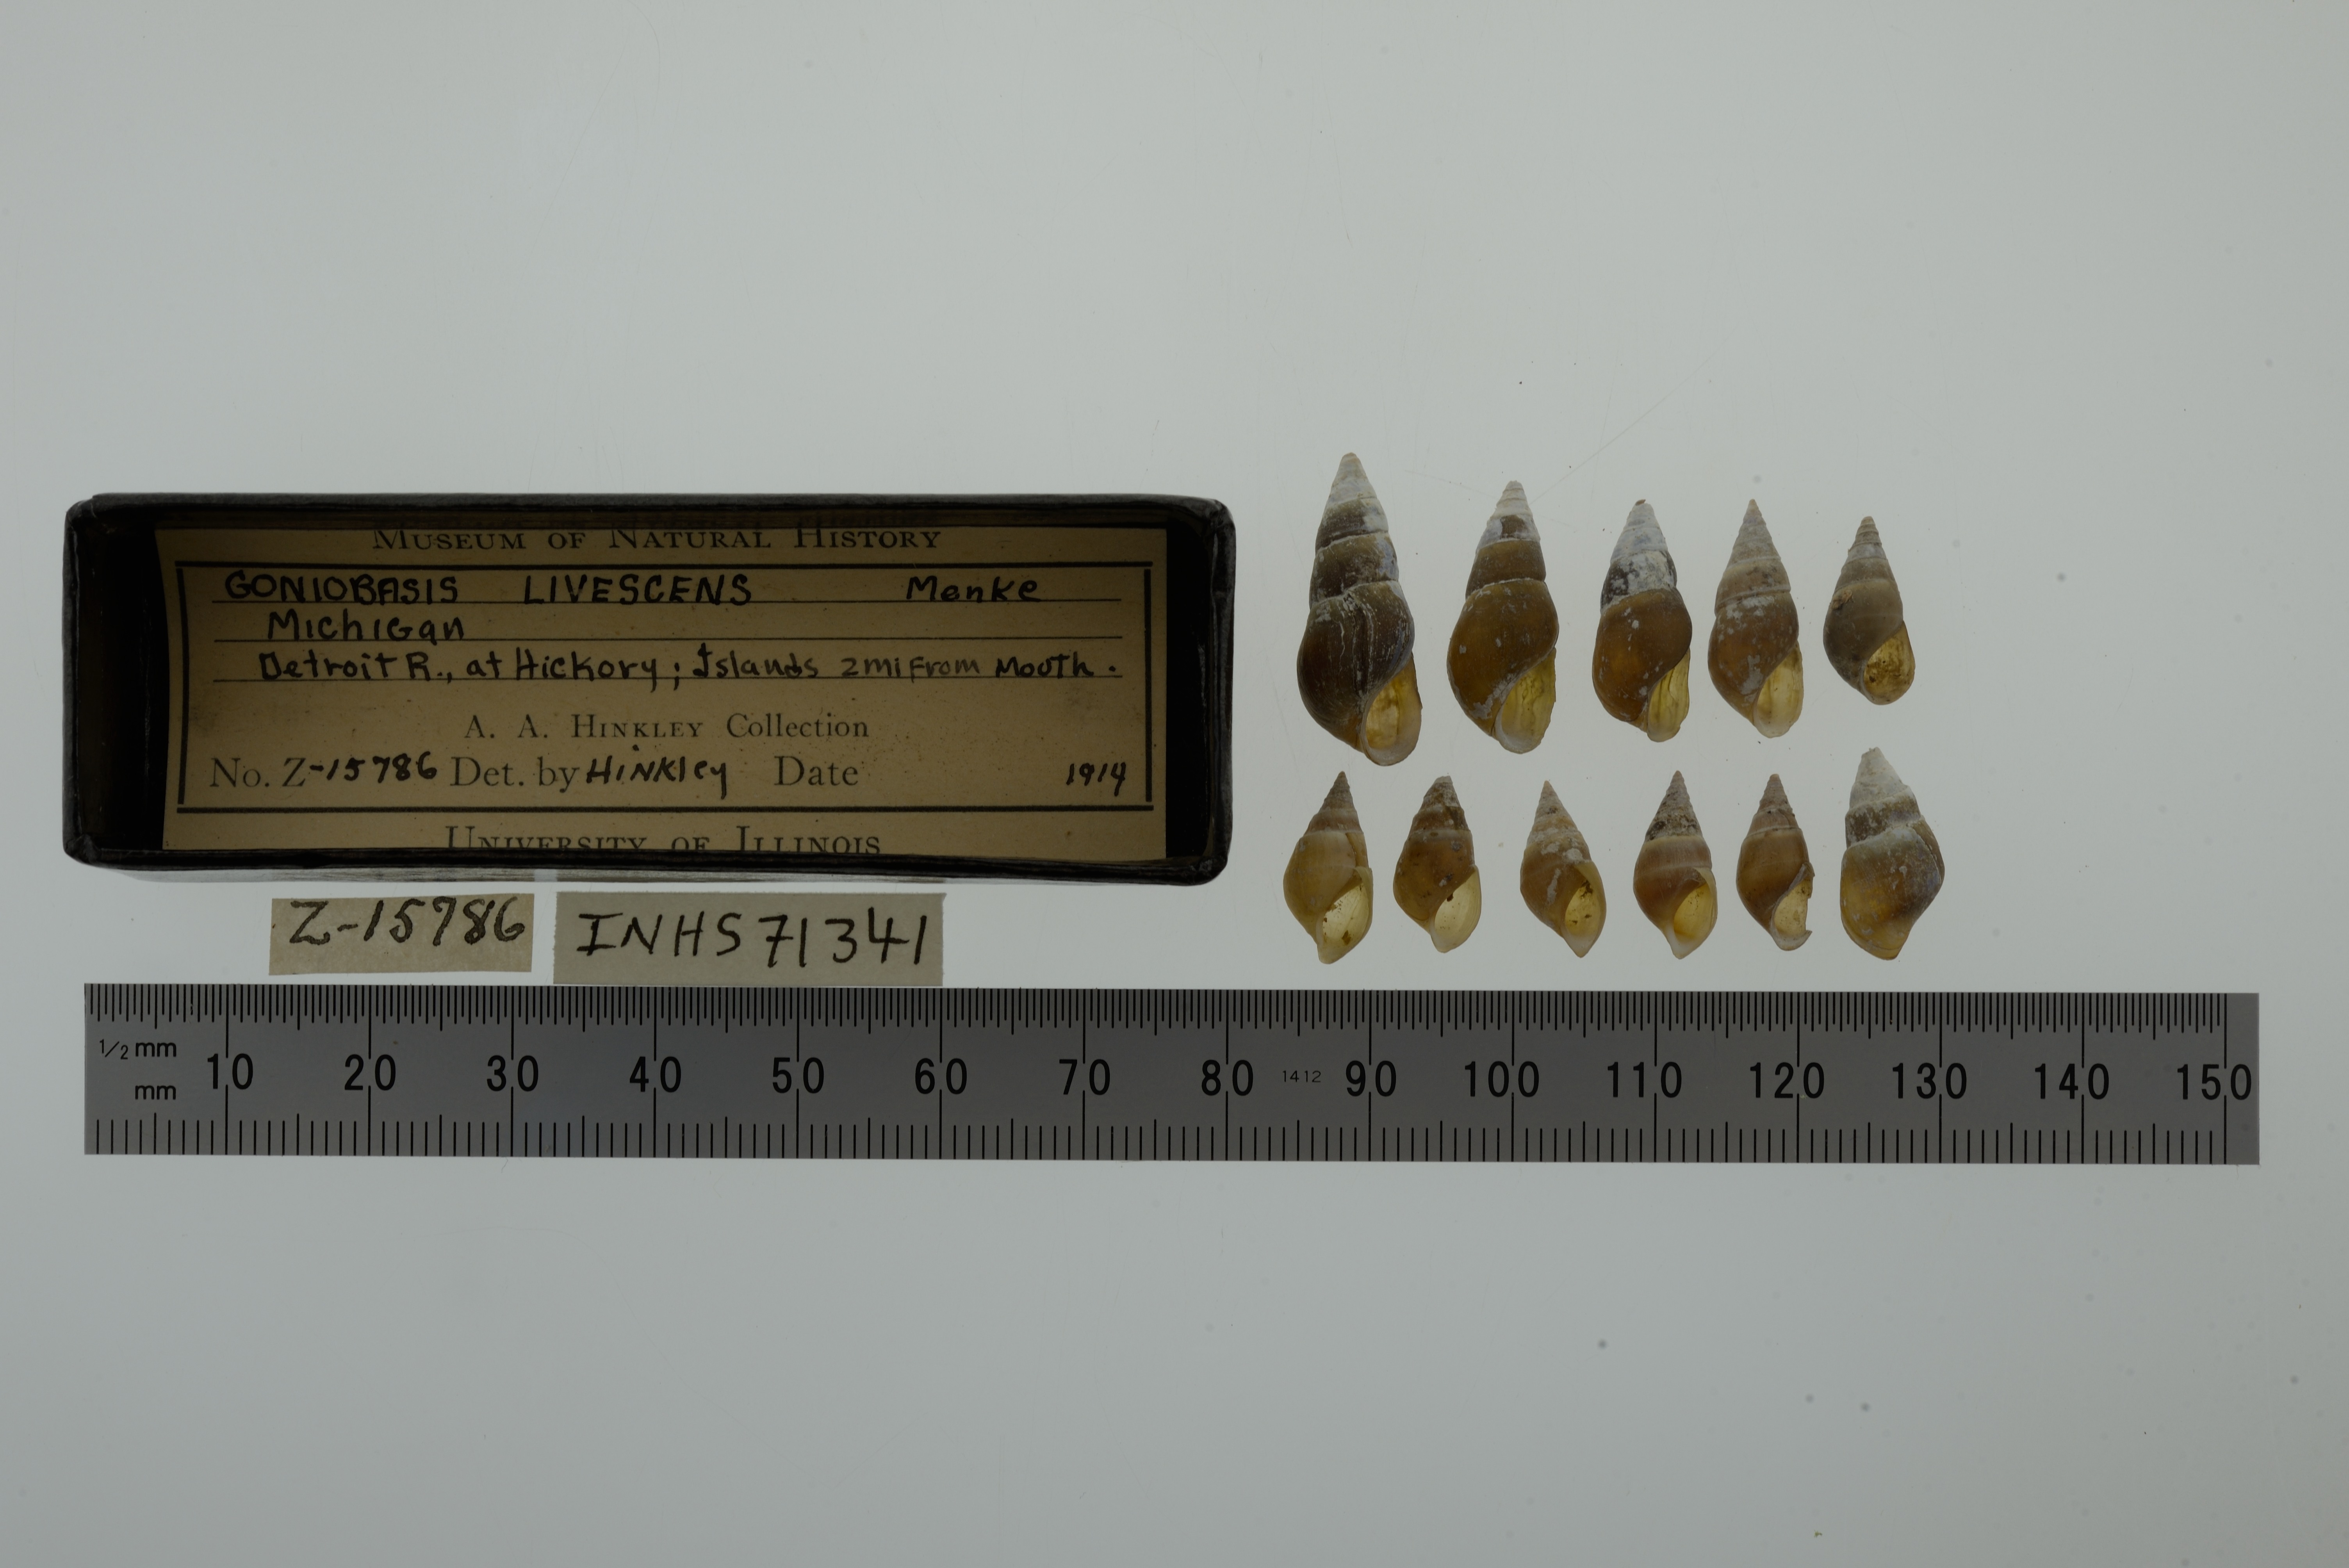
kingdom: Animalia
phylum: Mollusca
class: Gastropoda
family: Pleuroceridae
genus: Elimia
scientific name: Elimia livescens
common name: Liver elimia
